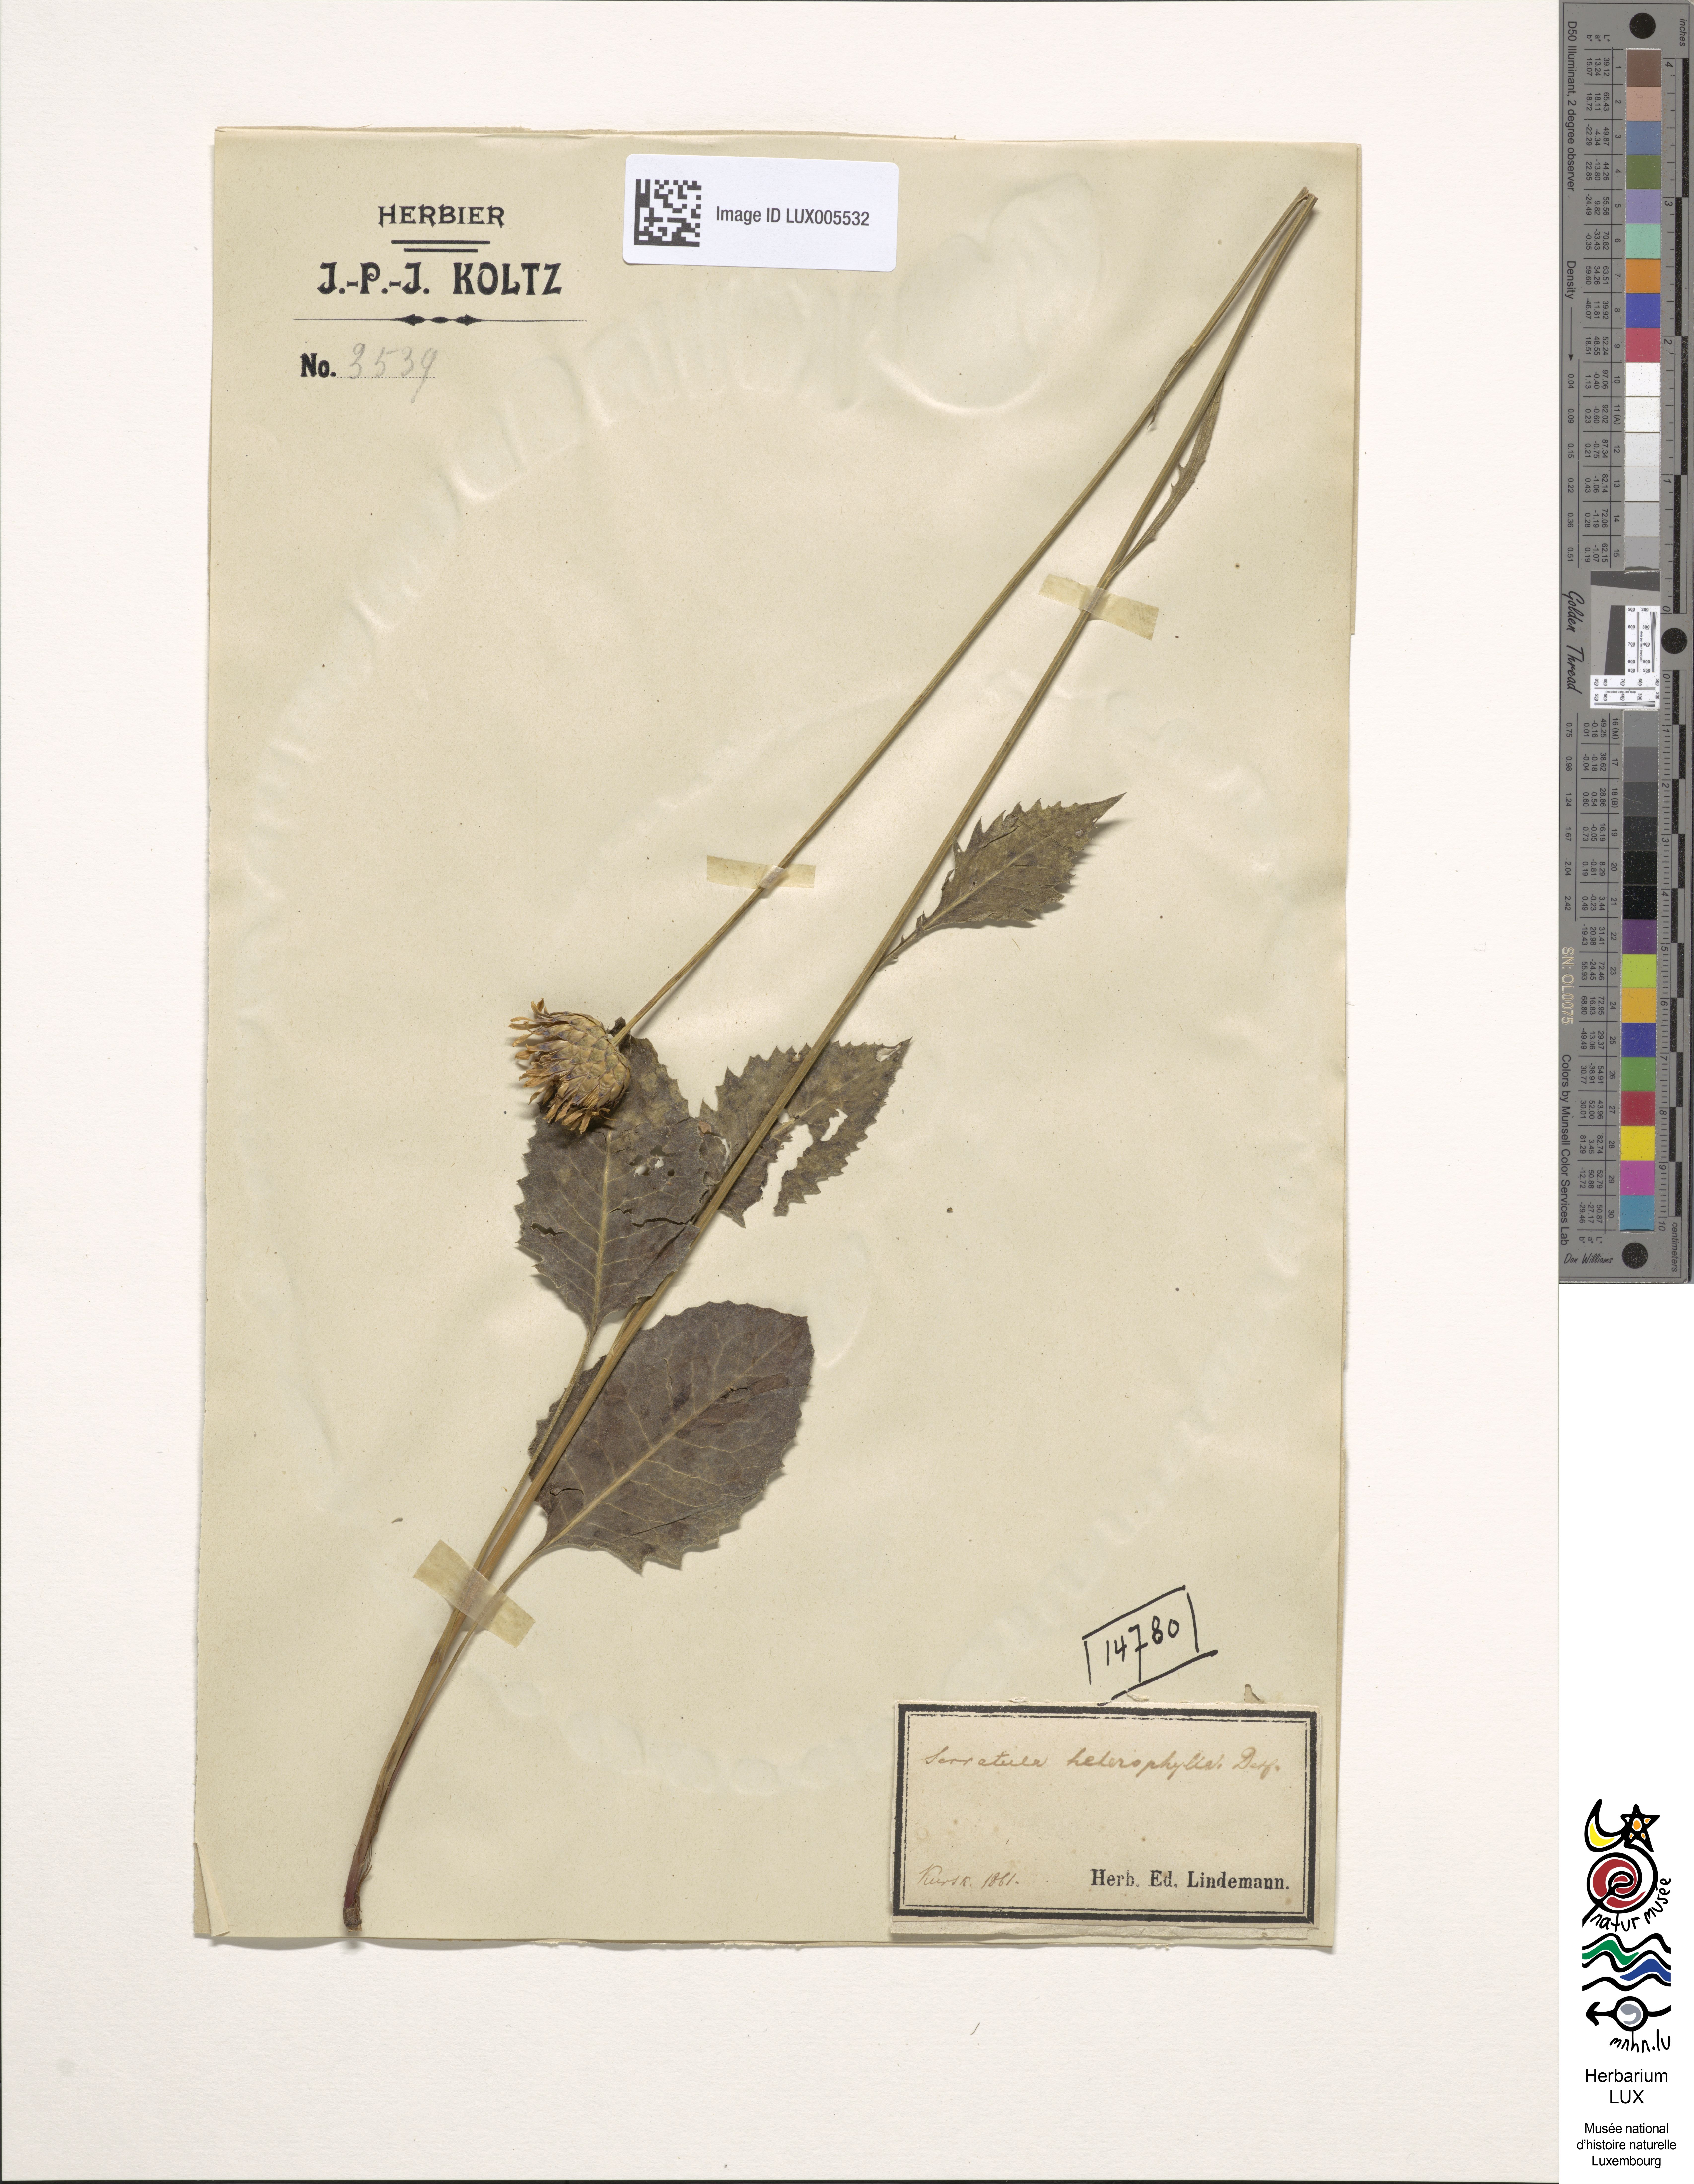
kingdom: Plantae
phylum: Tracheophyta
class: Magnoliopsida
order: Asterales
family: Asteraceae
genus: Klasea
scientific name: Klasea lycopifolia
